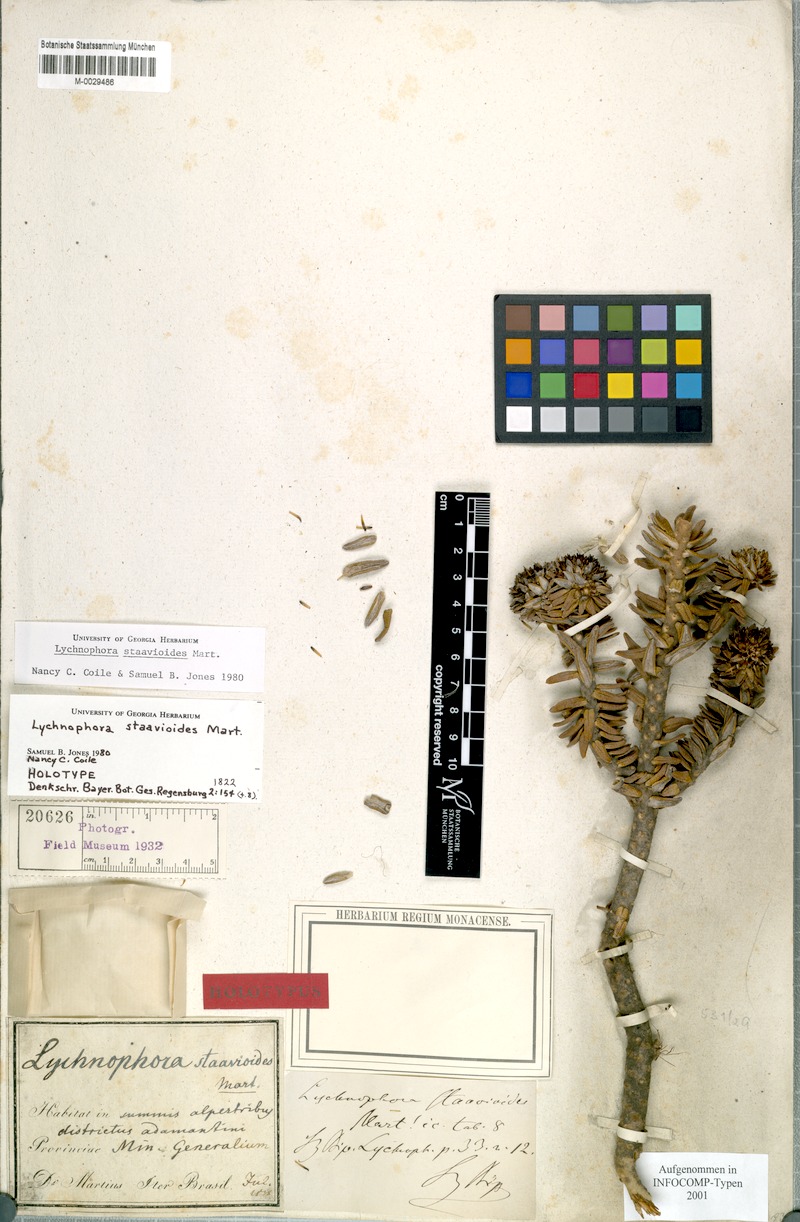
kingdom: Plantae
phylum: Tracheophyta
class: Magnoliopsida
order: Asterales
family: Asteraceae
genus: Lychnophora
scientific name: Lychnophora staavioides
